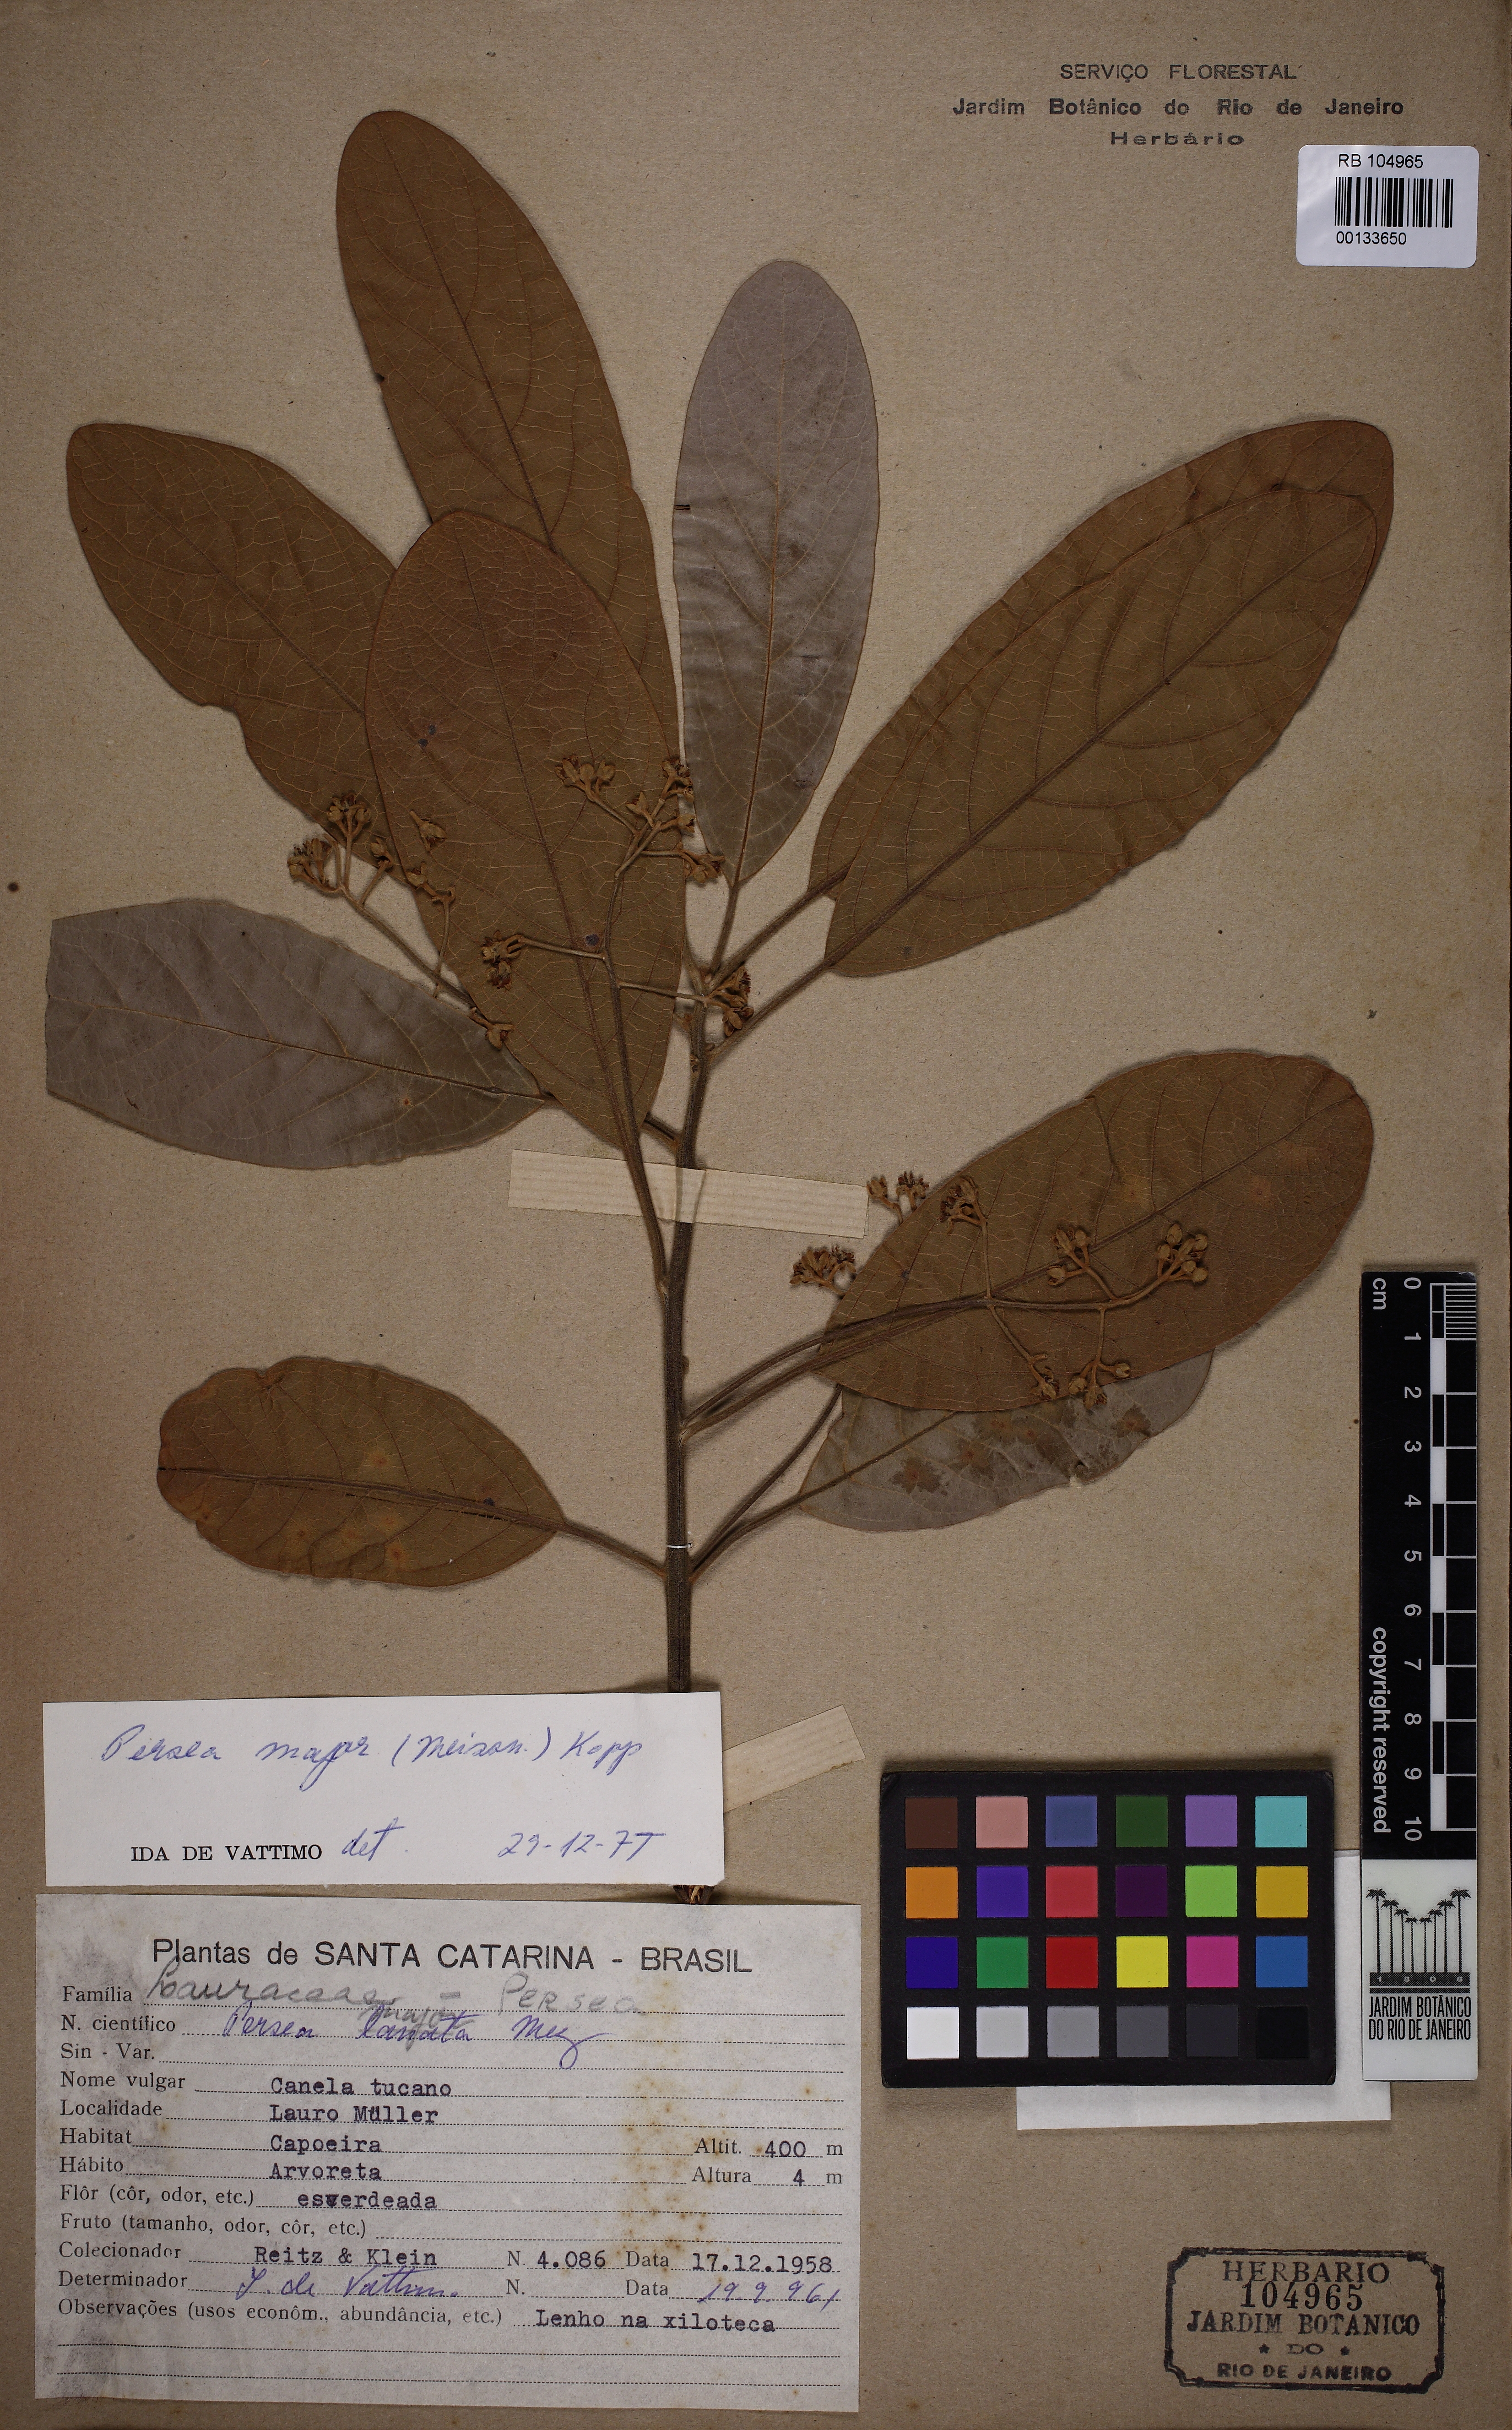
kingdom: Plantae
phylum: Tracheophyta
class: Magnoliopsida
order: Laurales
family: Lauraceae
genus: Persea
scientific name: Persea major
